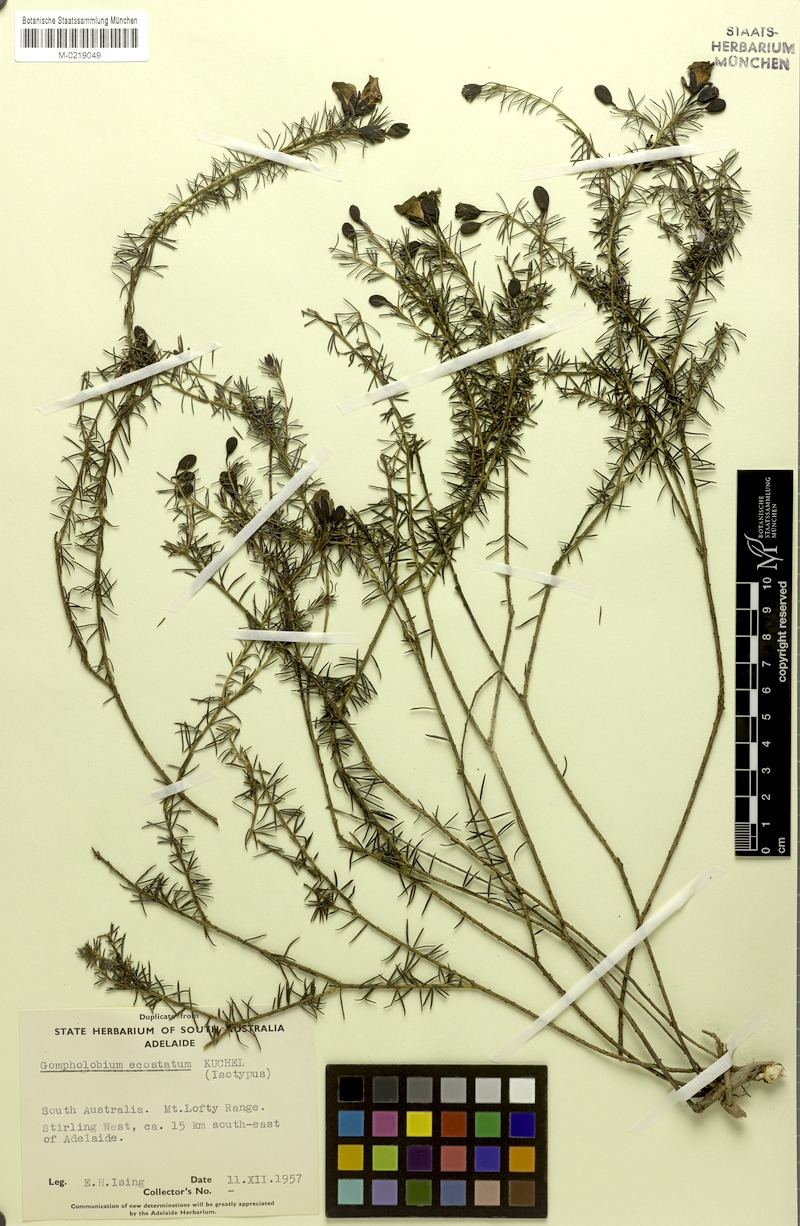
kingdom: Plantae
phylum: Tracheophyta
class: Magnoliopsida
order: Fabales
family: Fabaceae
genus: Gompholobium
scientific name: Gompholobium ecostatum
